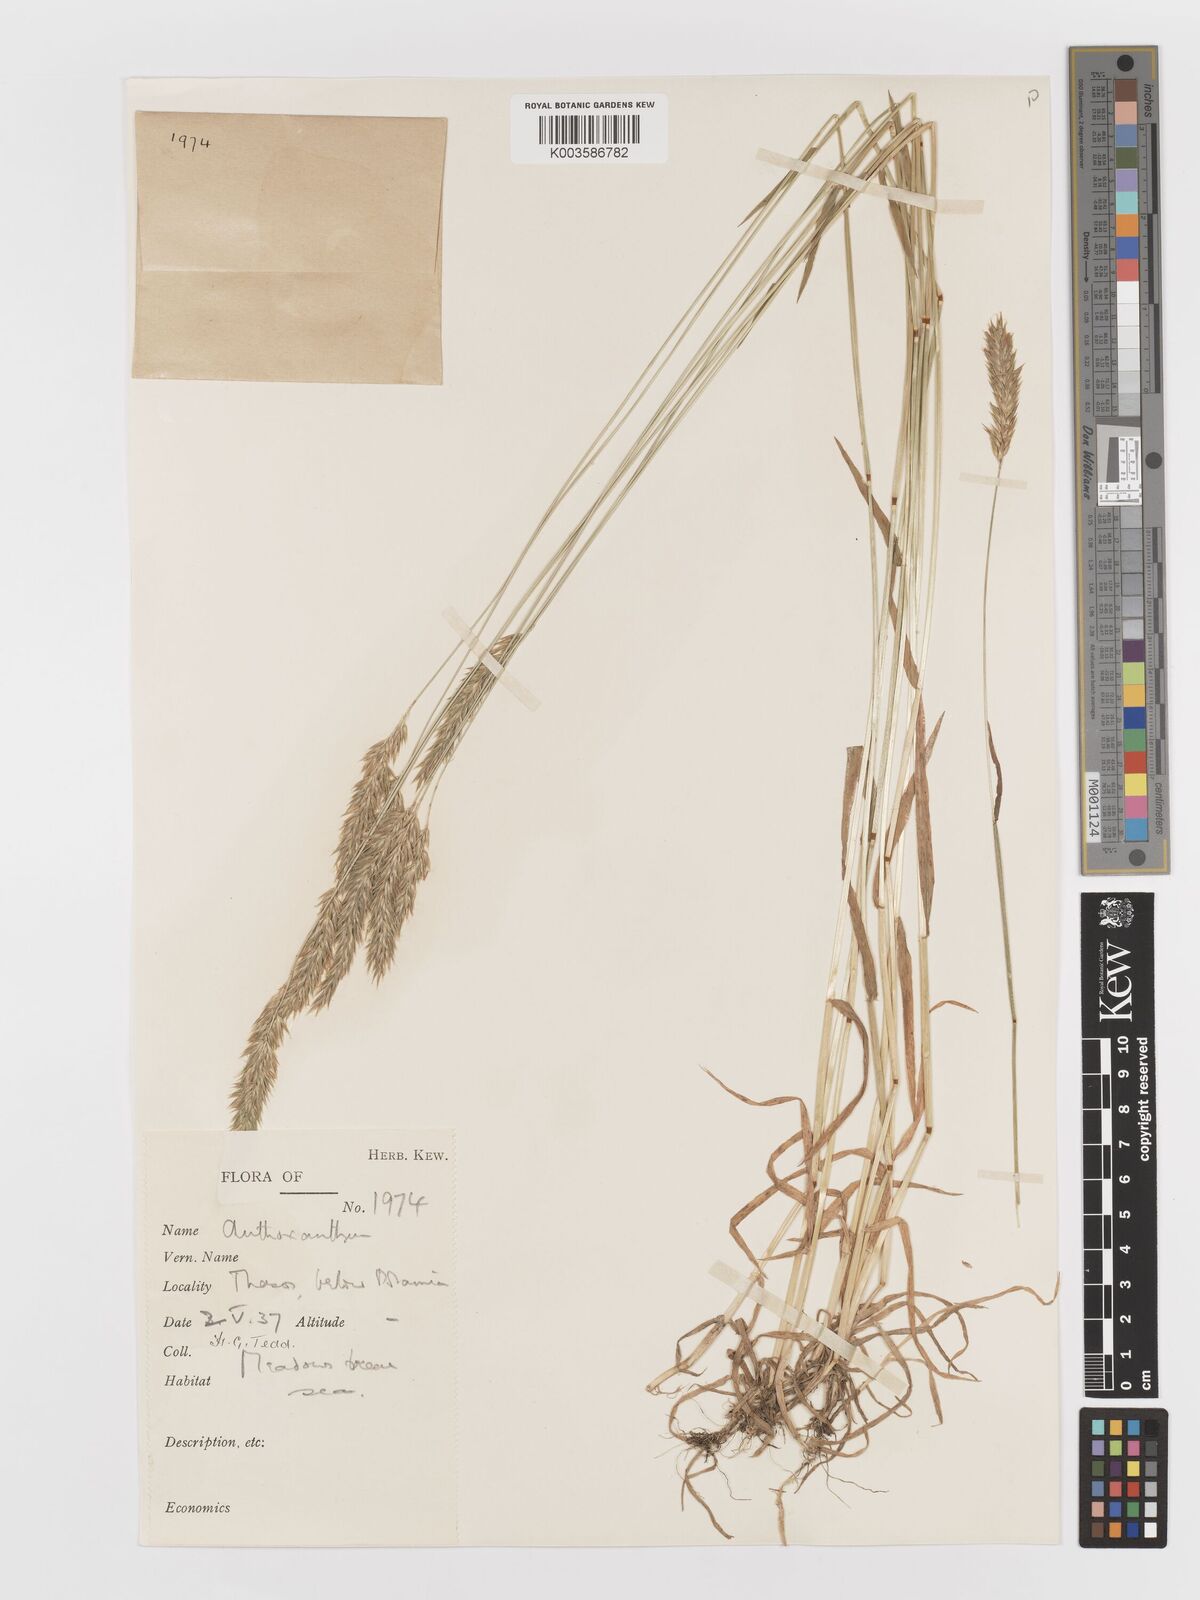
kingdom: Plantae
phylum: Tracheophyta
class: Liliopsida
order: Poales
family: Poaceae
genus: Anthoxanthum
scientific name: Anthoxanthum odoratum
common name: Sweet vernalgrass
